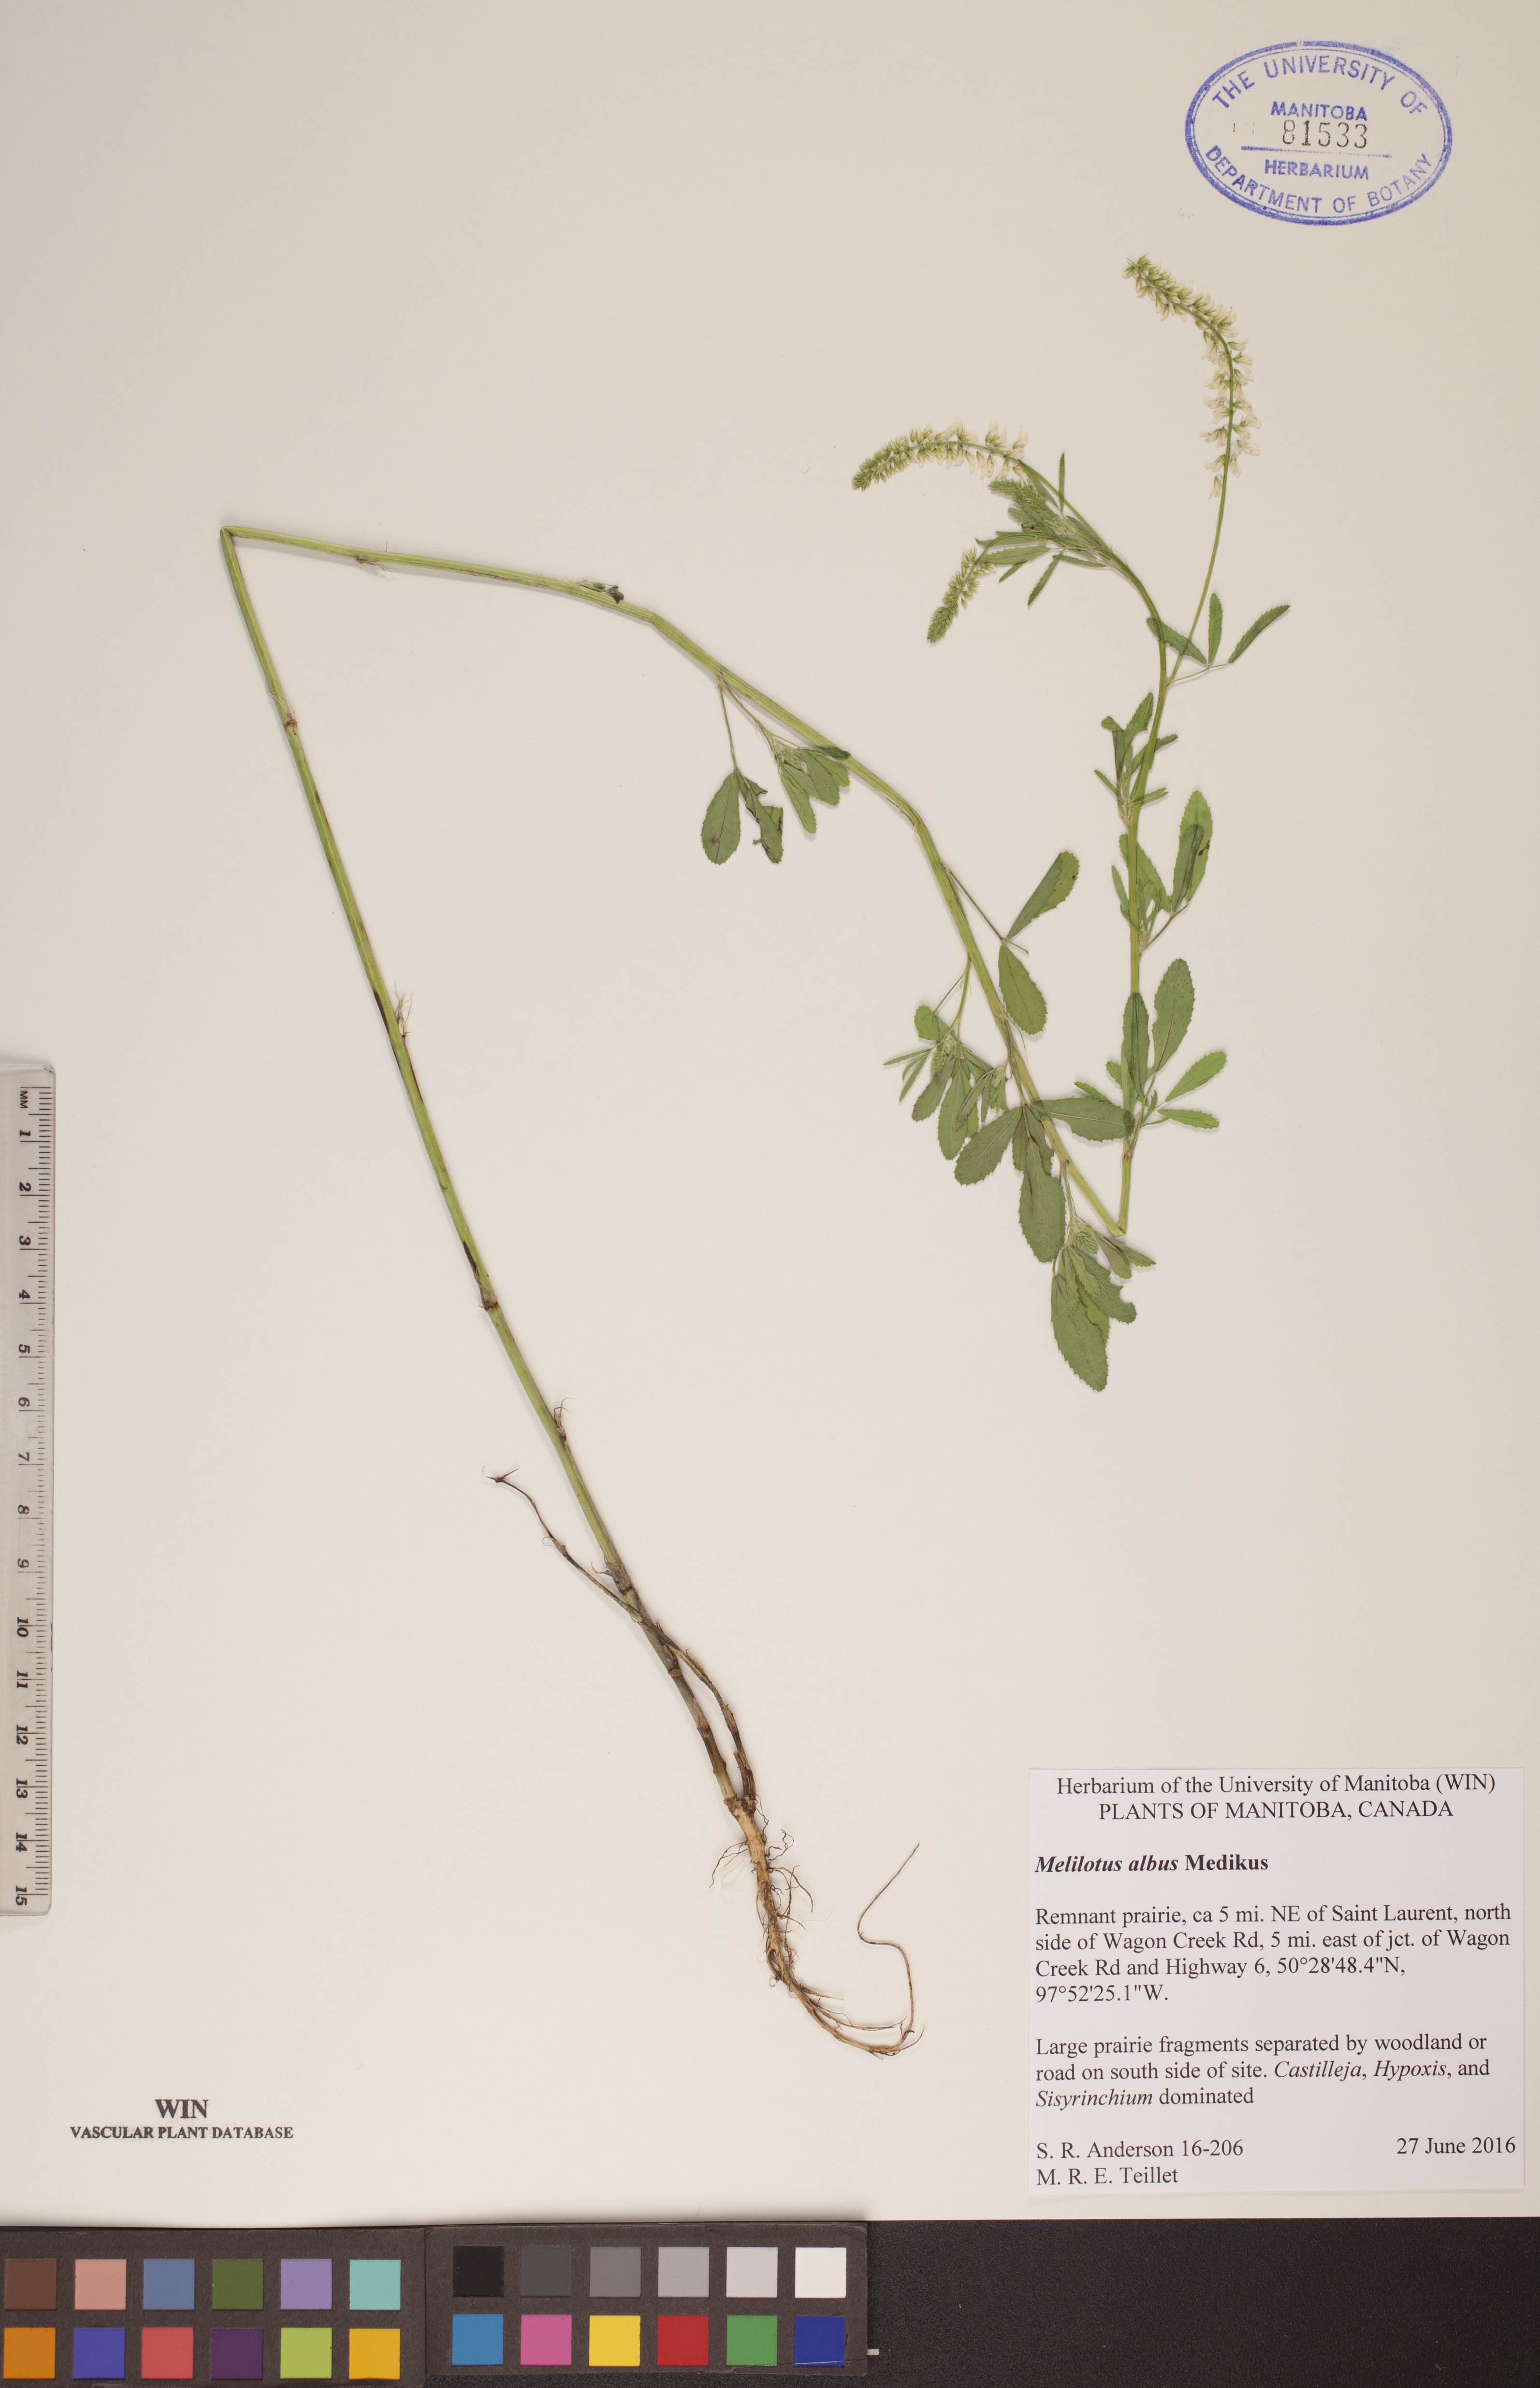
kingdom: Plantae
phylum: Tracheophyta
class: Magnoliopsida
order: Fabales
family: Fabaceae
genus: Melilotus
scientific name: Melilotus albus
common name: White melilot
